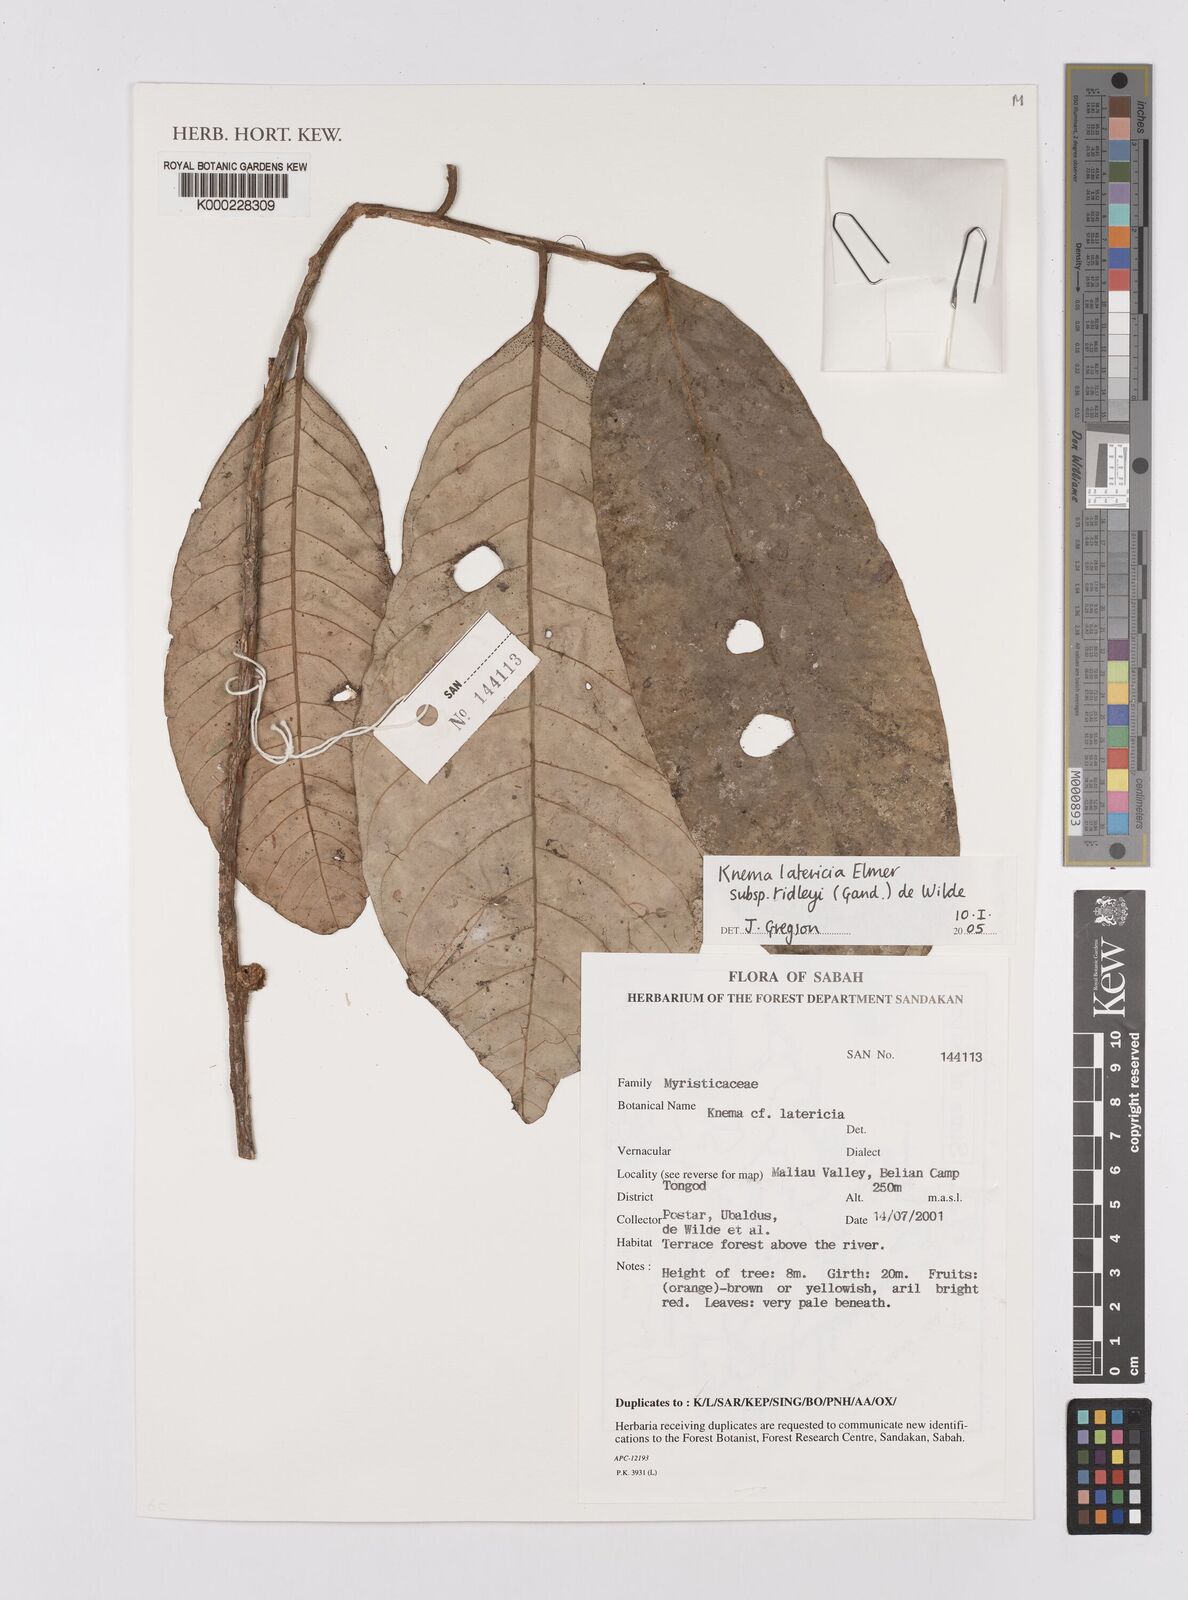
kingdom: Plantae
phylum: Tracheophyta
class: Magnoliopsida
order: Magnoliales
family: Myristicaceae
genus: Knema
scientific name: Knema latericia
